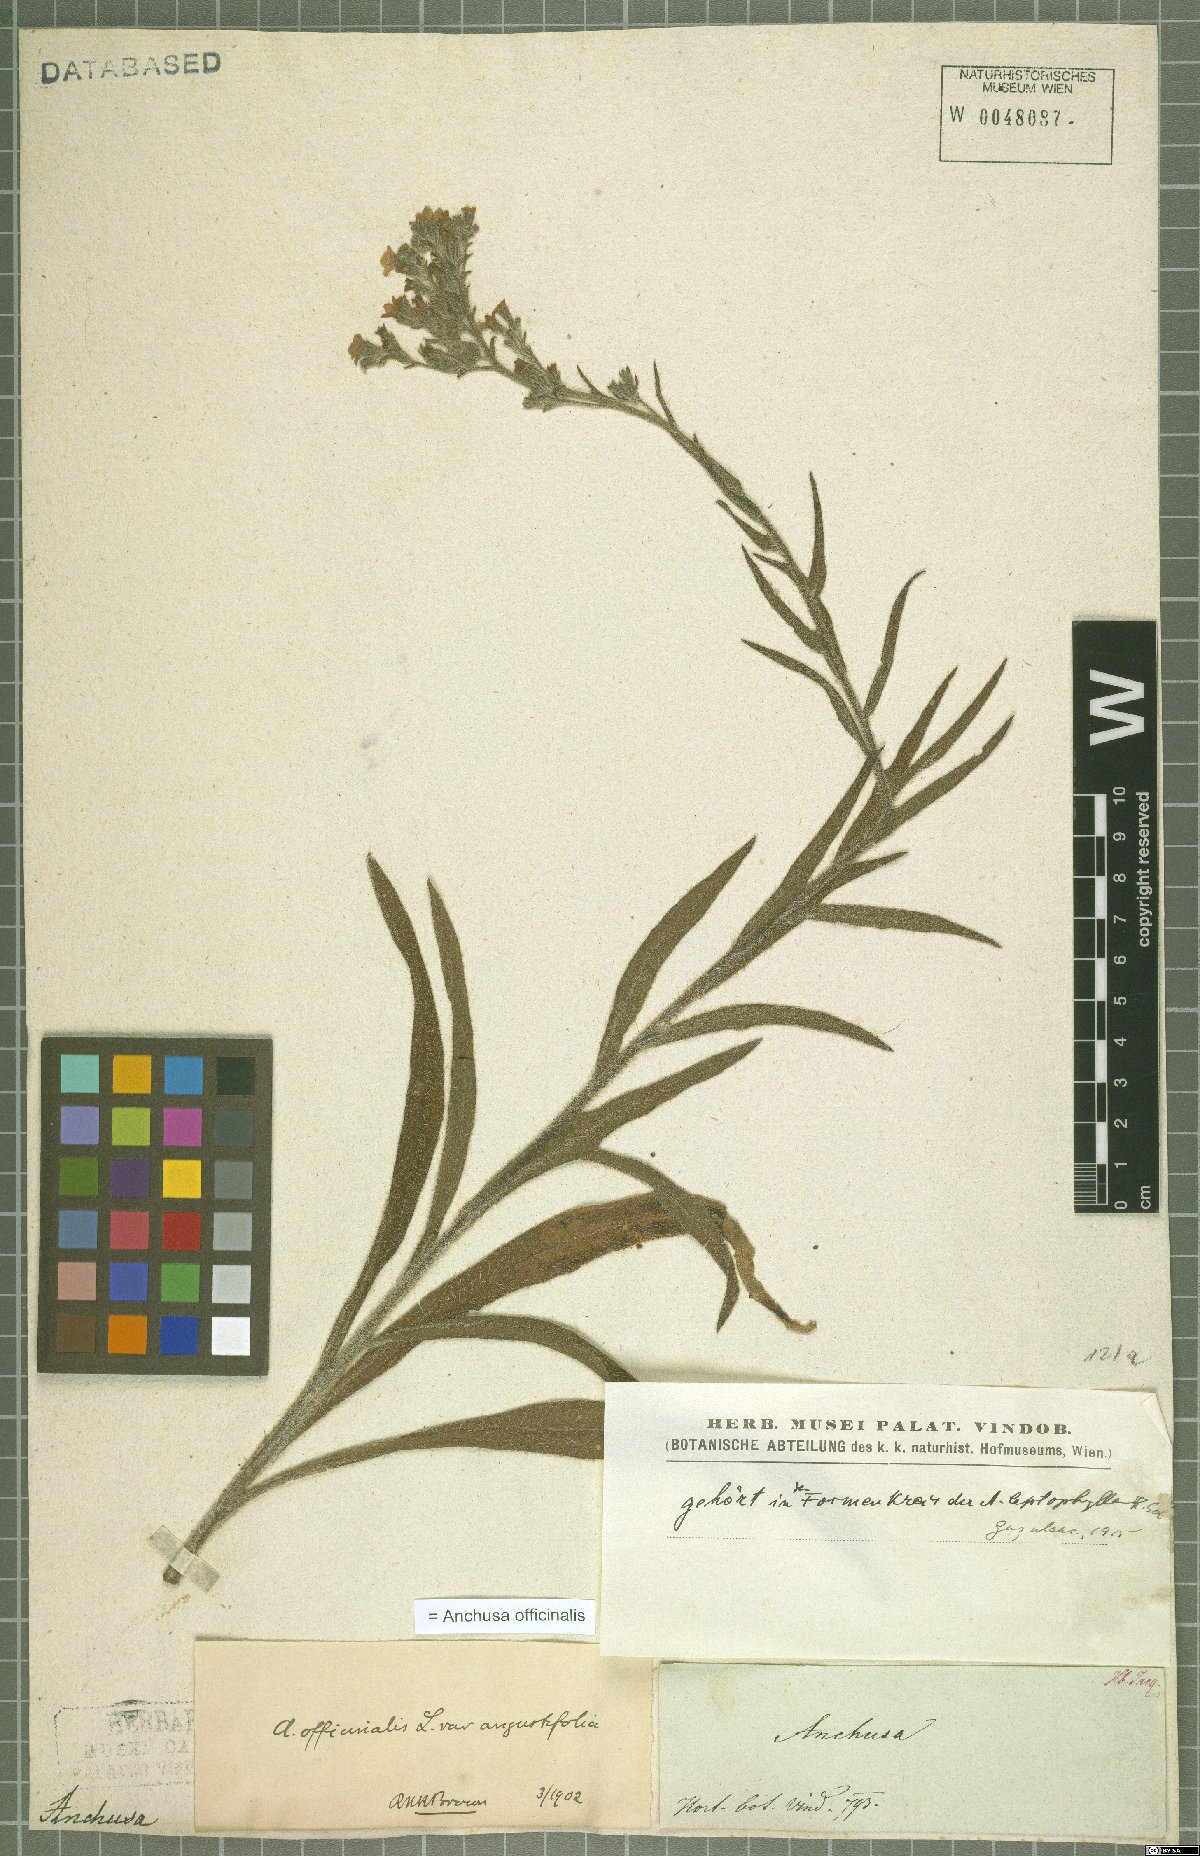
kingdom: Plantae
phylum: Tracheophyta
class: Magnoliopsida
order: Boraginales
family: Boraginaceae
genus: Anchusa
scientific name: Anchusa officinalis
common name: Alkanet
